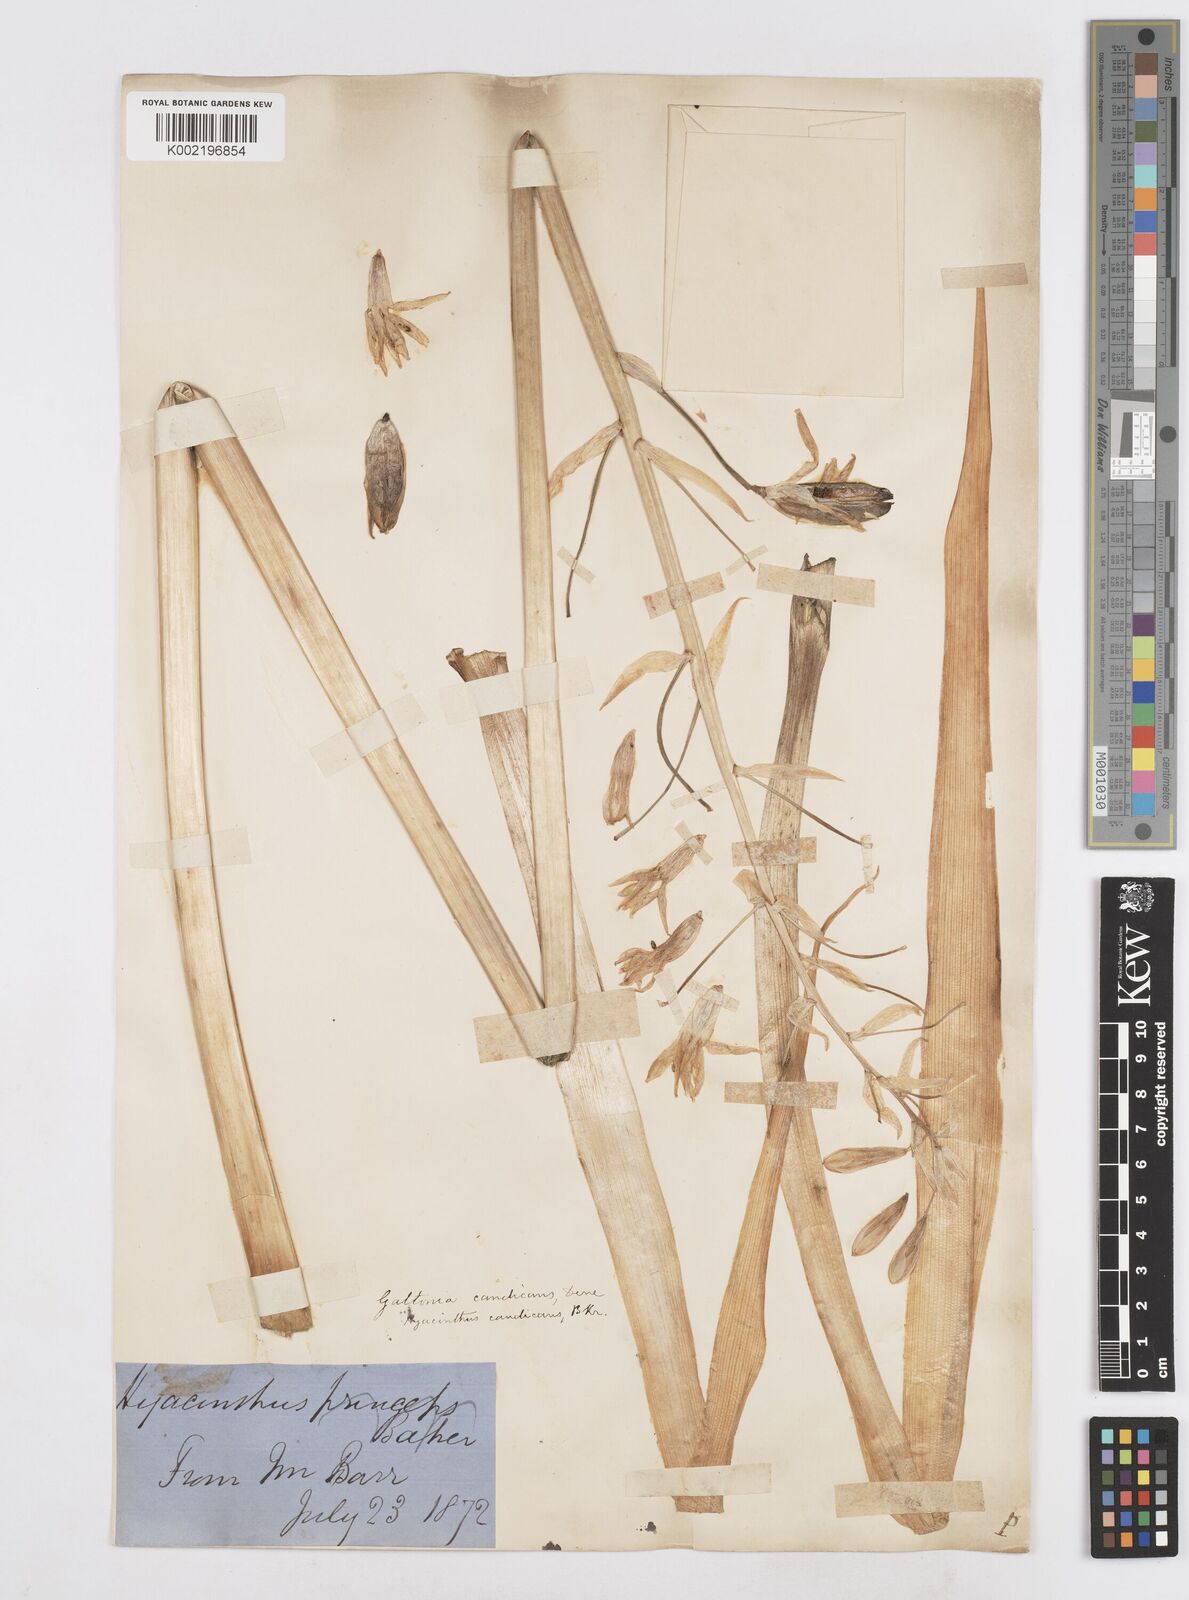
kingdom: Plantae
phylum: Tracheophyta
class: Liliopsida
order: Asparagales
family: Asparagaceae
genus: Ornithogalum
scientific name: Ornithogalum candicans
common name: Summer-hyacinth
